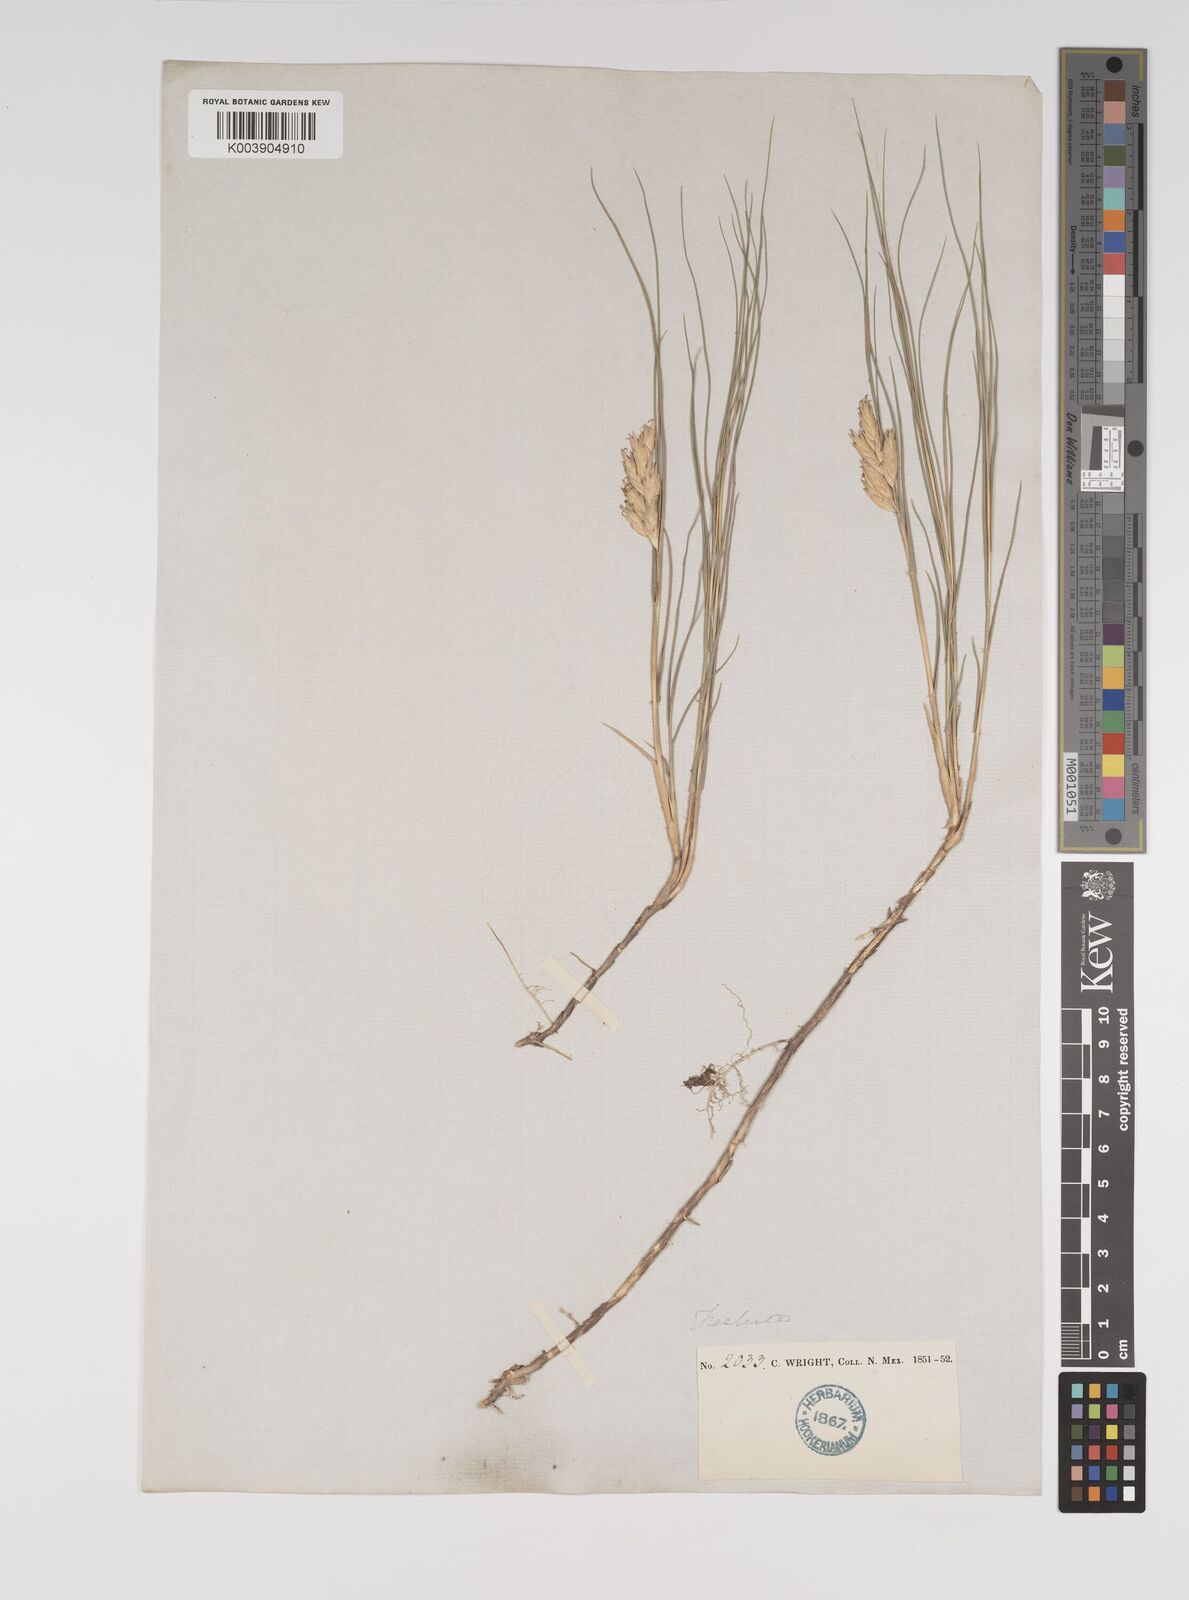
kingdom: Plantae
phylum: Tracheophyta
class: Liliopsida
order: Poales
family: Poaceae
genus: Distichlis
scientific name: Distichlis spicata
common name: Saltgrass
